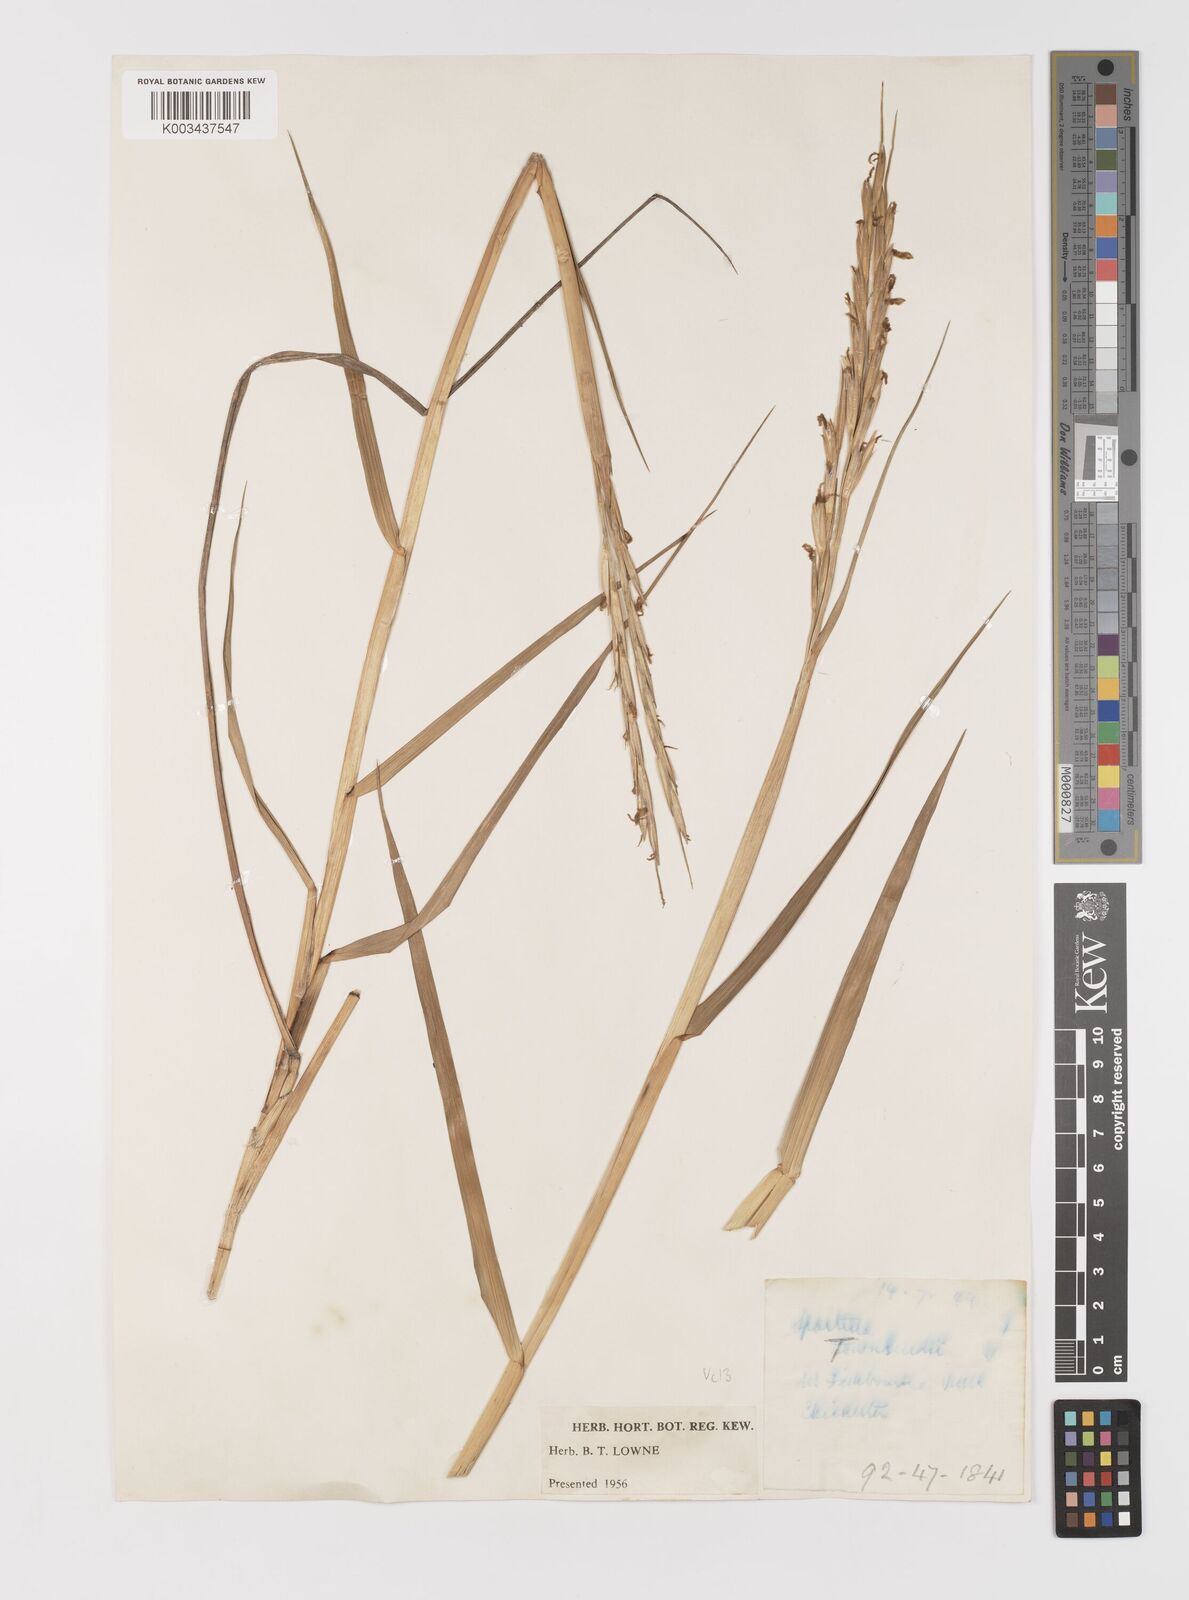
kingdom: Plantae
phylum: Tracheophyta
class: Liliopsida
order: Poales
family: Poaceae
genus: Sporobolus
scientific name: Sporobolus anglicus
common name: English cordgrass
